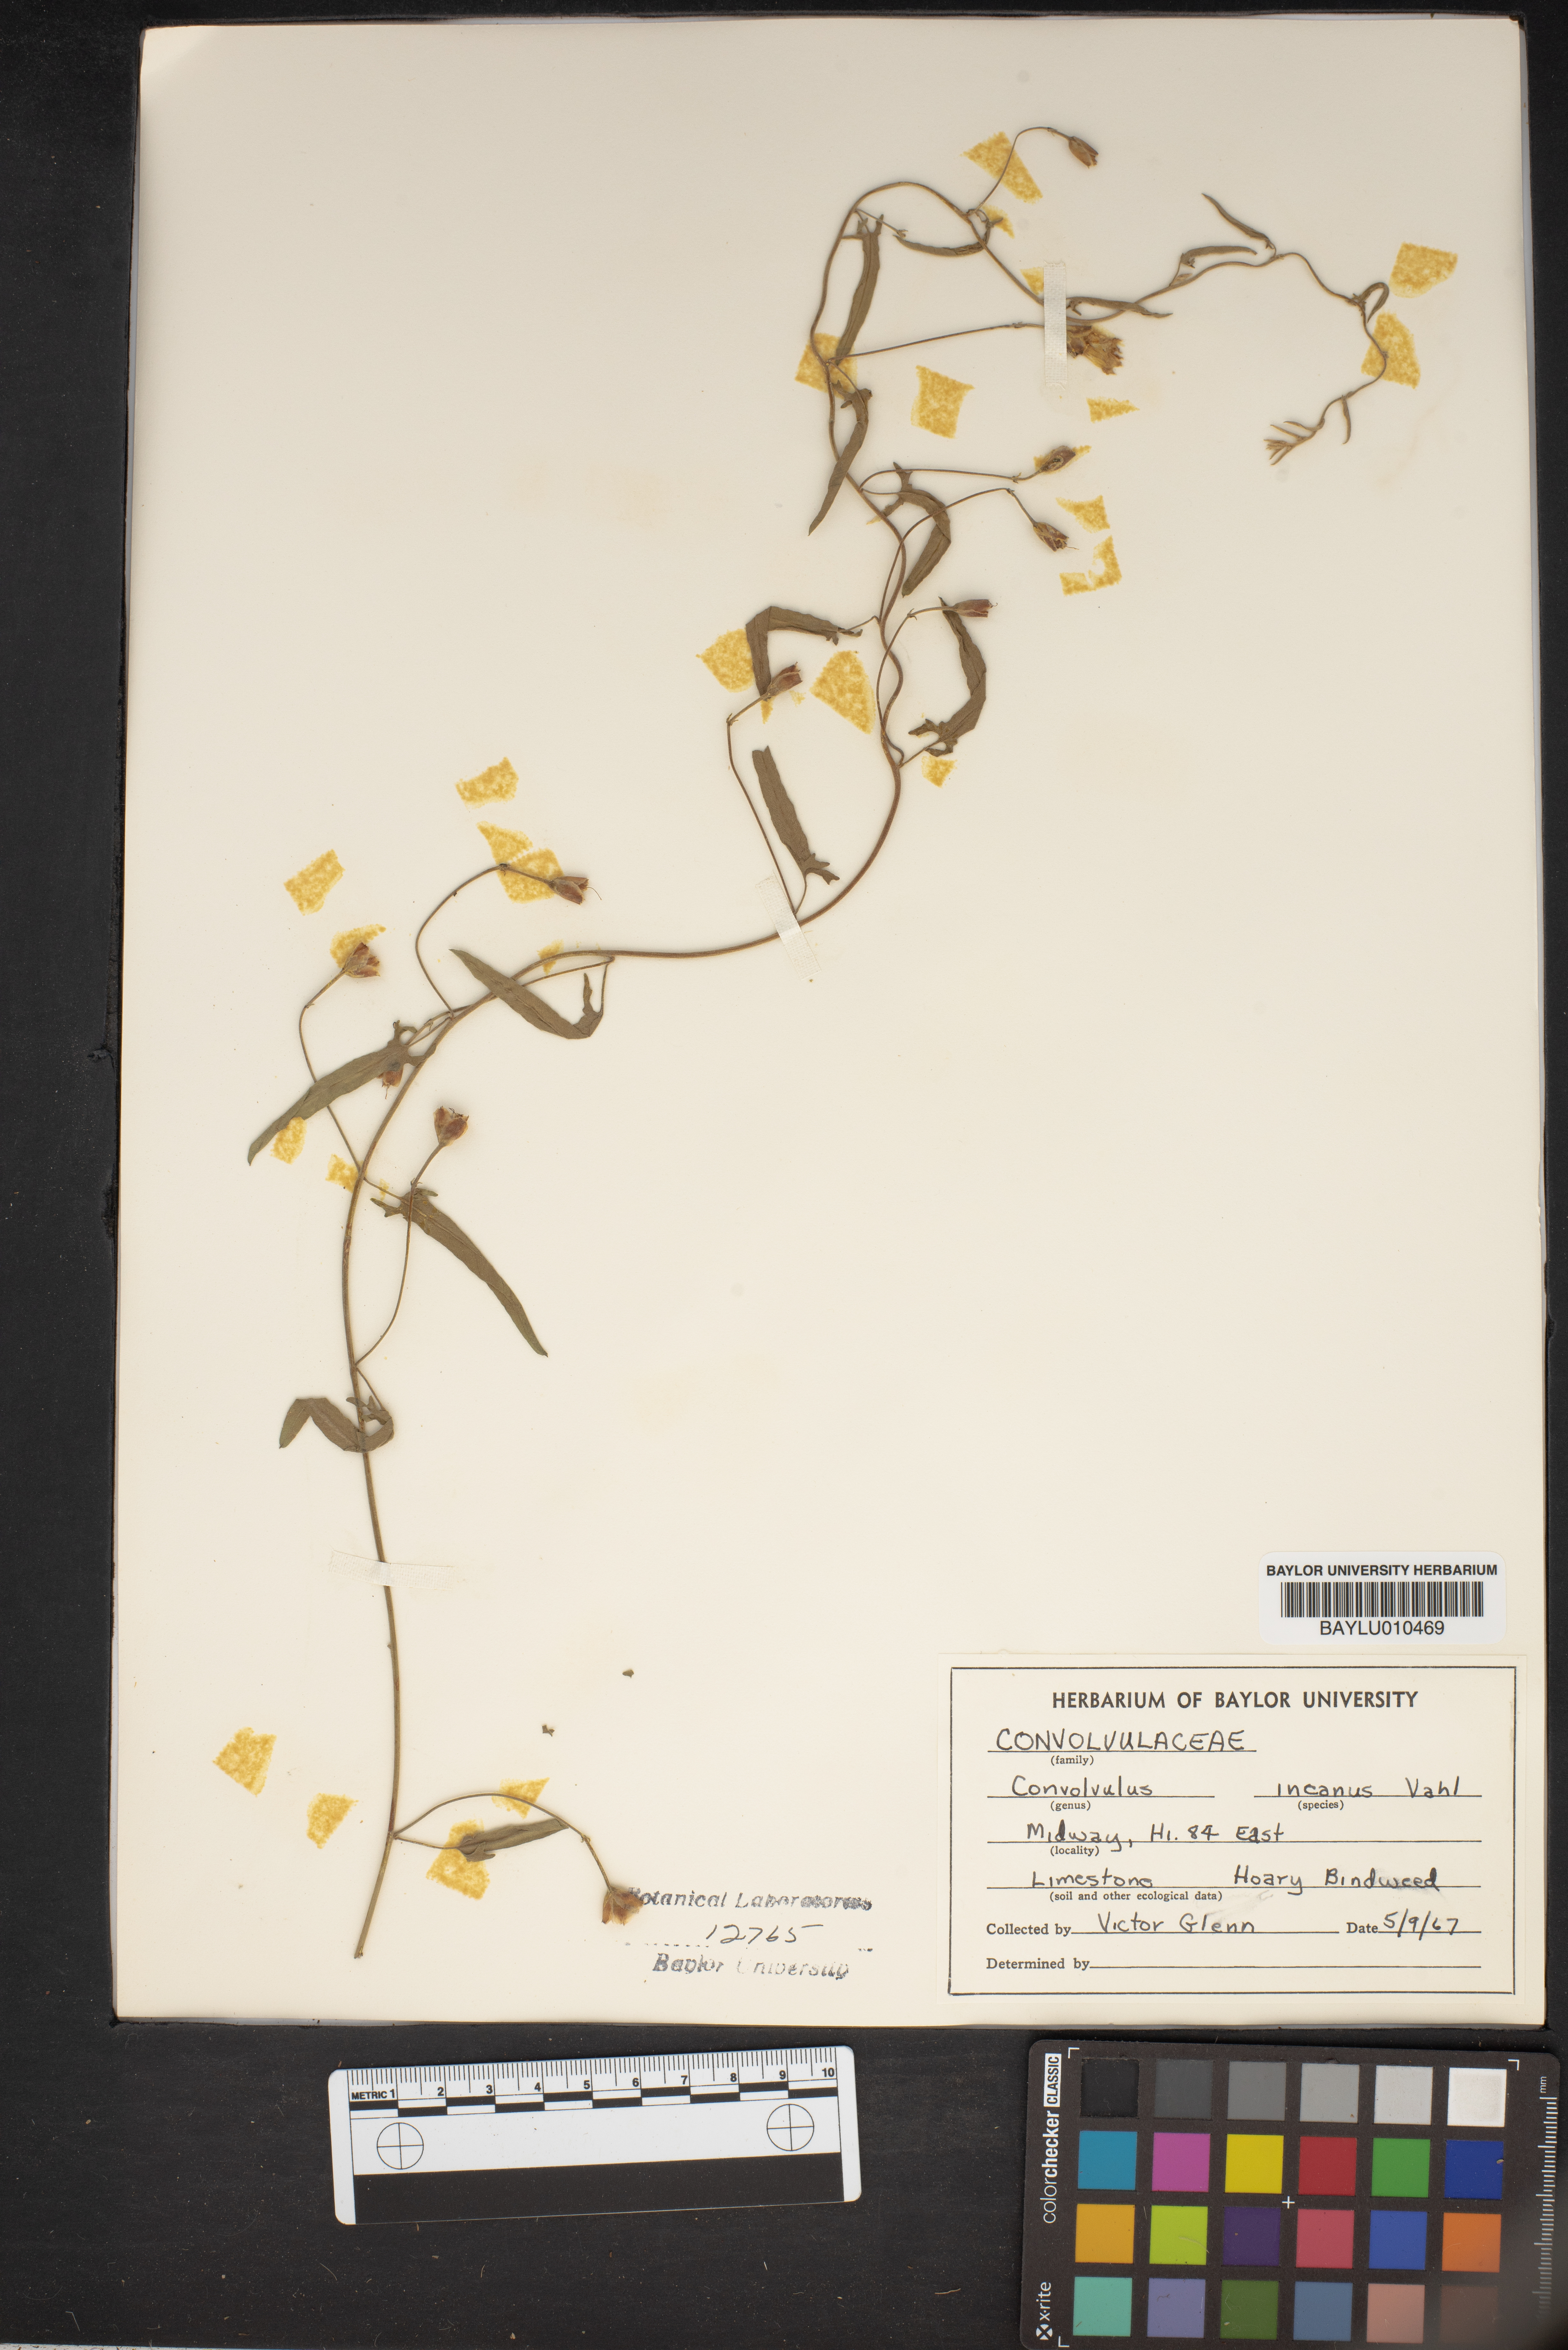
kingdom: Plantae
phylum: Tracheophyta
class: Magnoliopsida
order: Solanales
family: Convolvulaceae
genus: Convolvulus
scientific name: Convolvulus hermanniae
